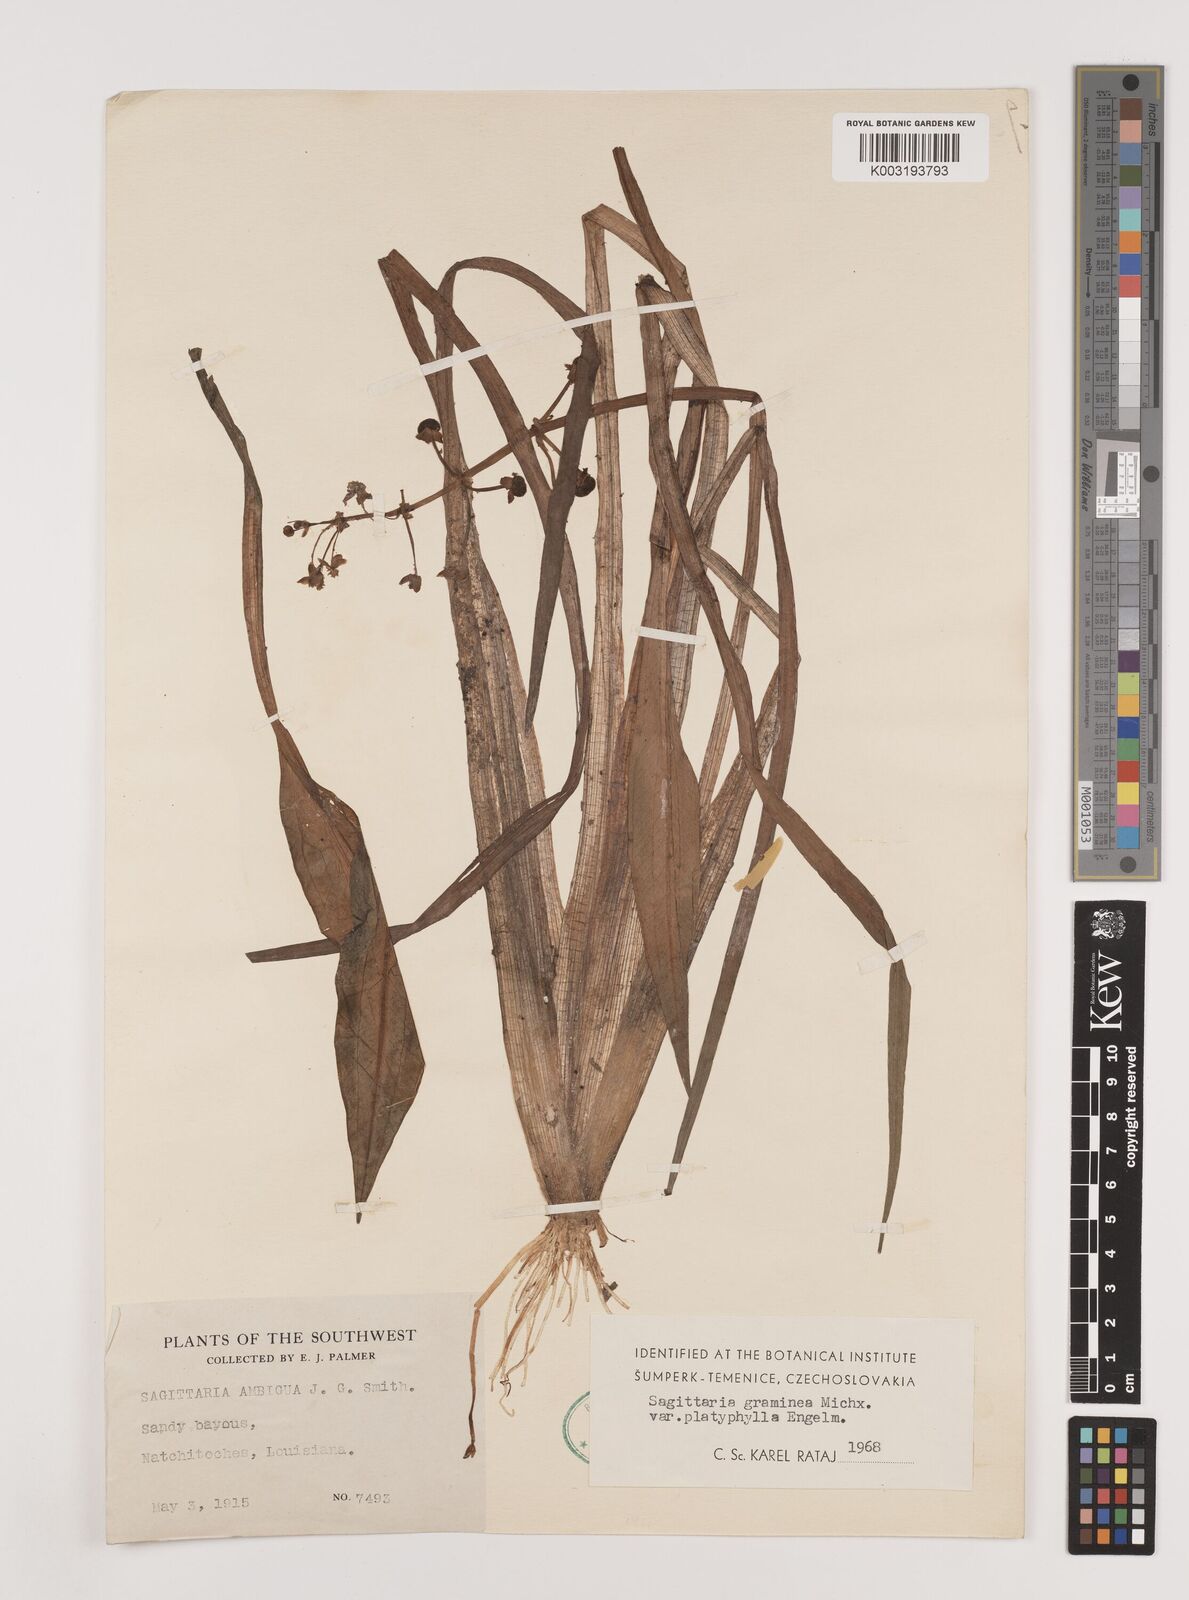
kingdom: Plantae
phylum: Tracheophyta
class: Liliopsida
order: Alismatales
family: Alismataceae
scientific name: Alismataceae
